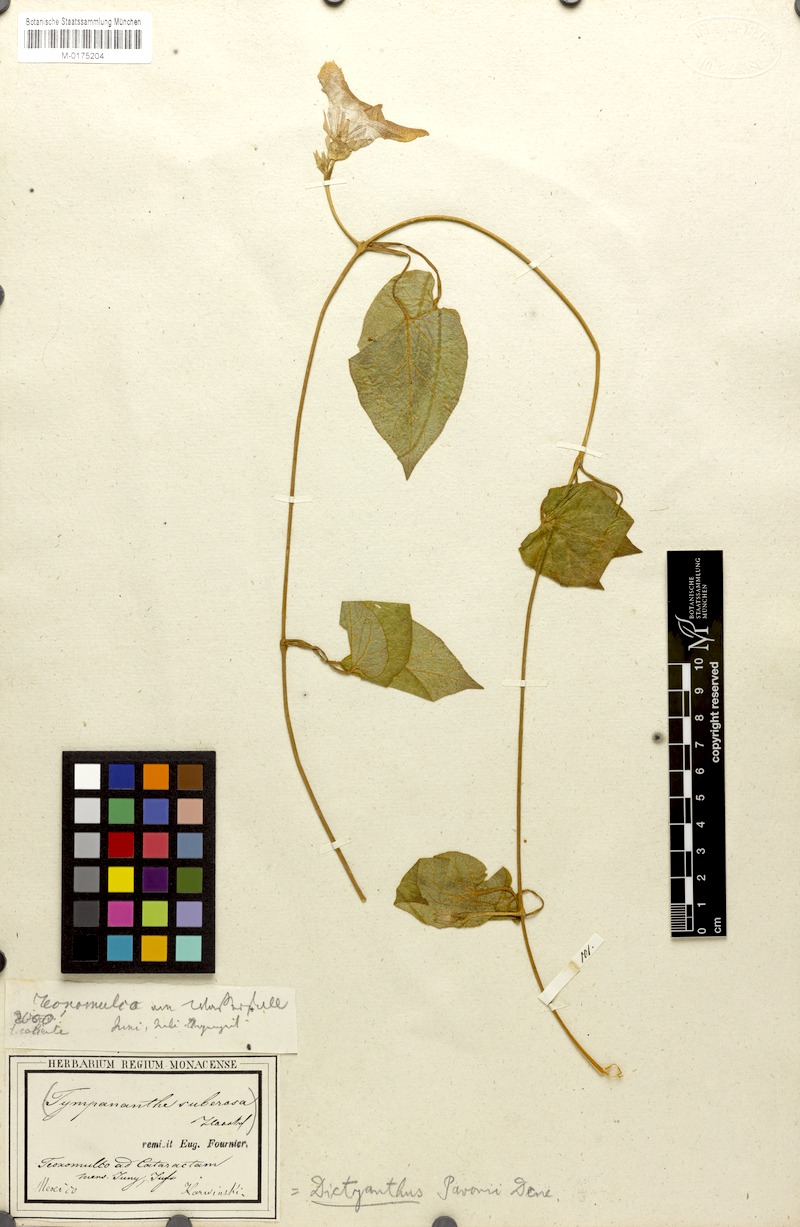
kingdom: Plantae
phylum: Tracheophyta
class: Magnoliopsida
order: Gentianales
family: Apocynaceae
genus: Dictyanthus
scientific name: Dictyanthus pavonii
